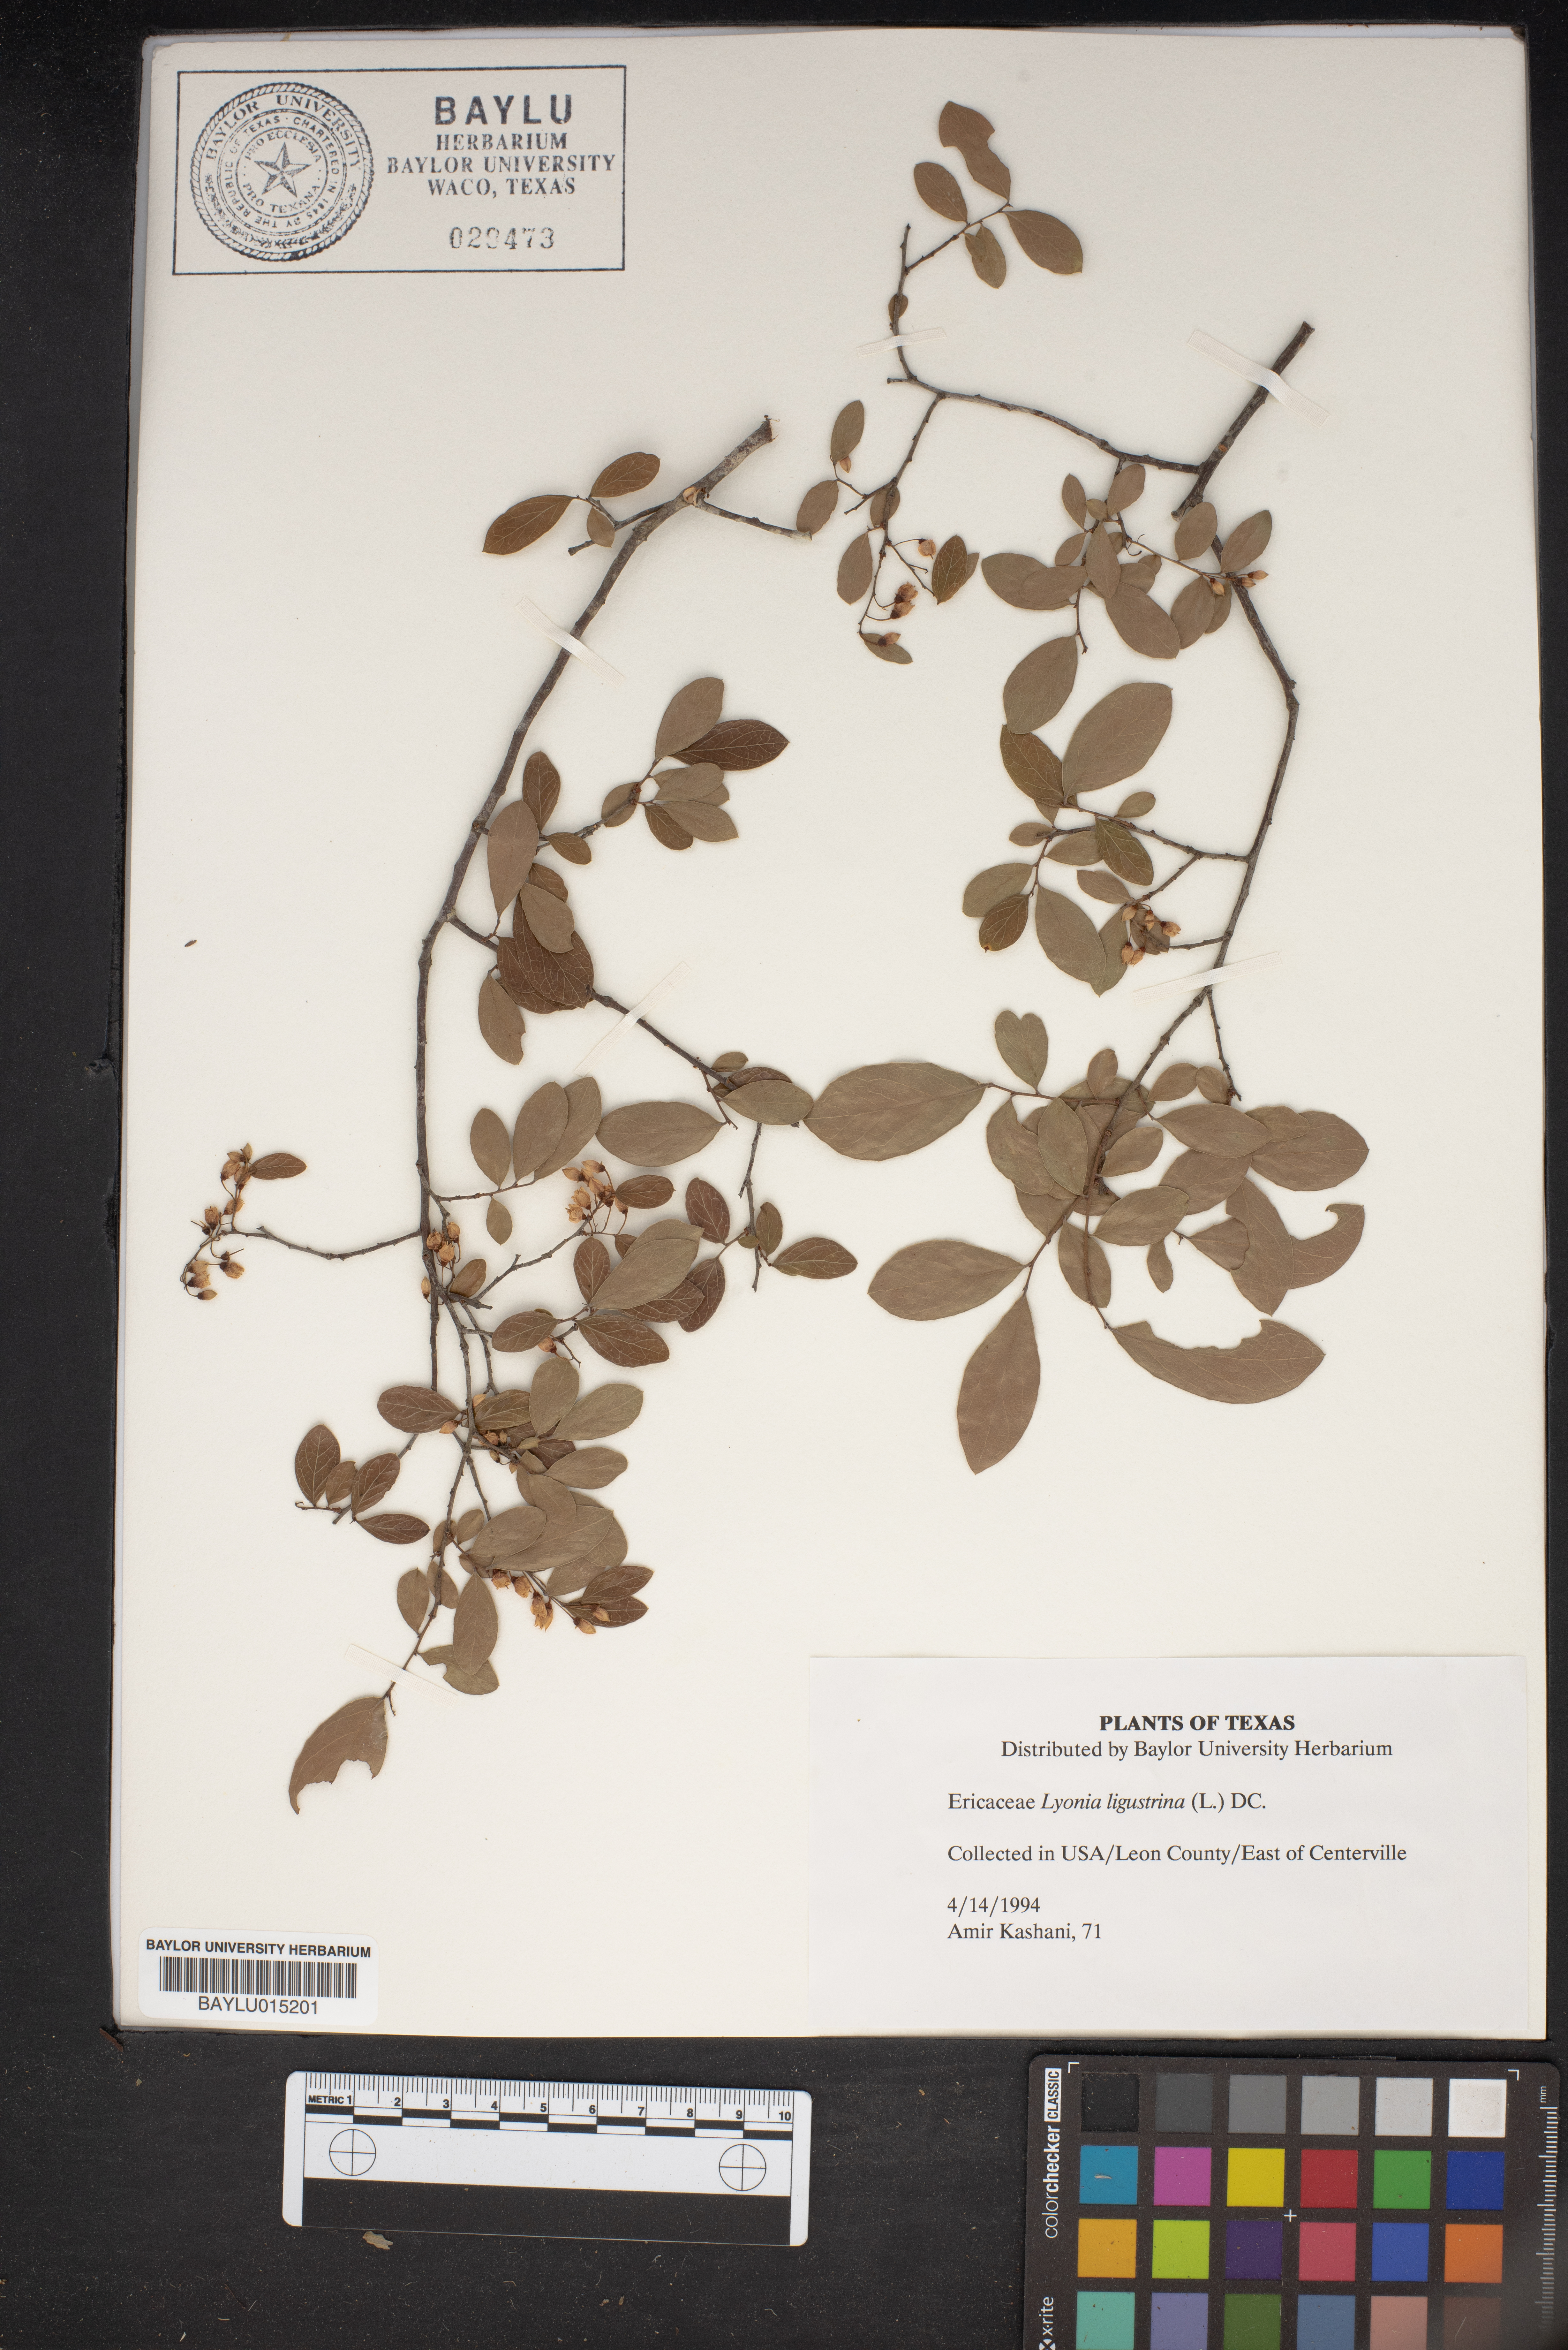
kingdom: Plantae
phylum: Tracheophyta
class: Magnoliopsida
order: Ericales
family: Ericaceae
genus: Lyonia
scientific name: Lyonia ligustrina
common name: Maleberry
